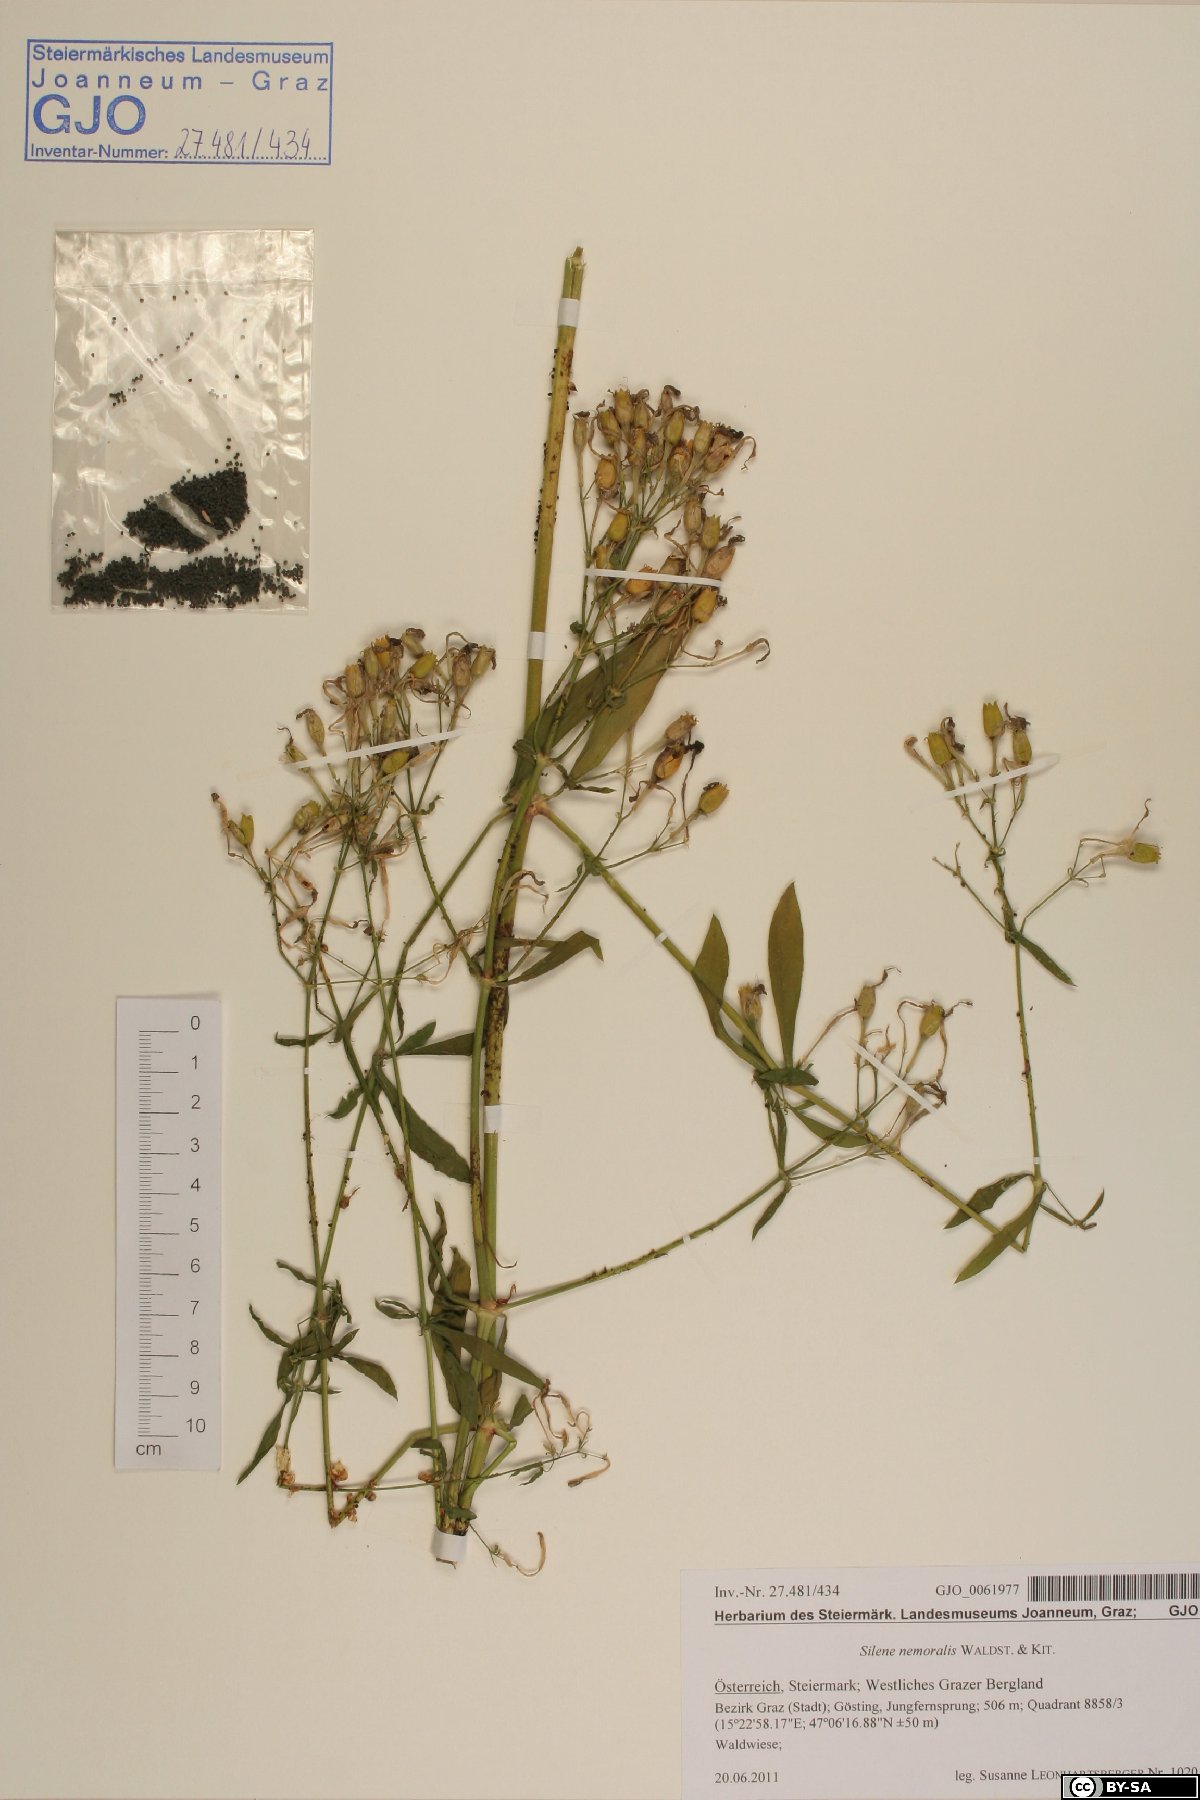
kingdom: Plantae
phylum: Tracheophyta
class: Magnoliopsida
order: Caryophyllales
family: Caryophyllaceae
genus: Silene
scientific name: Silene nemoralis
